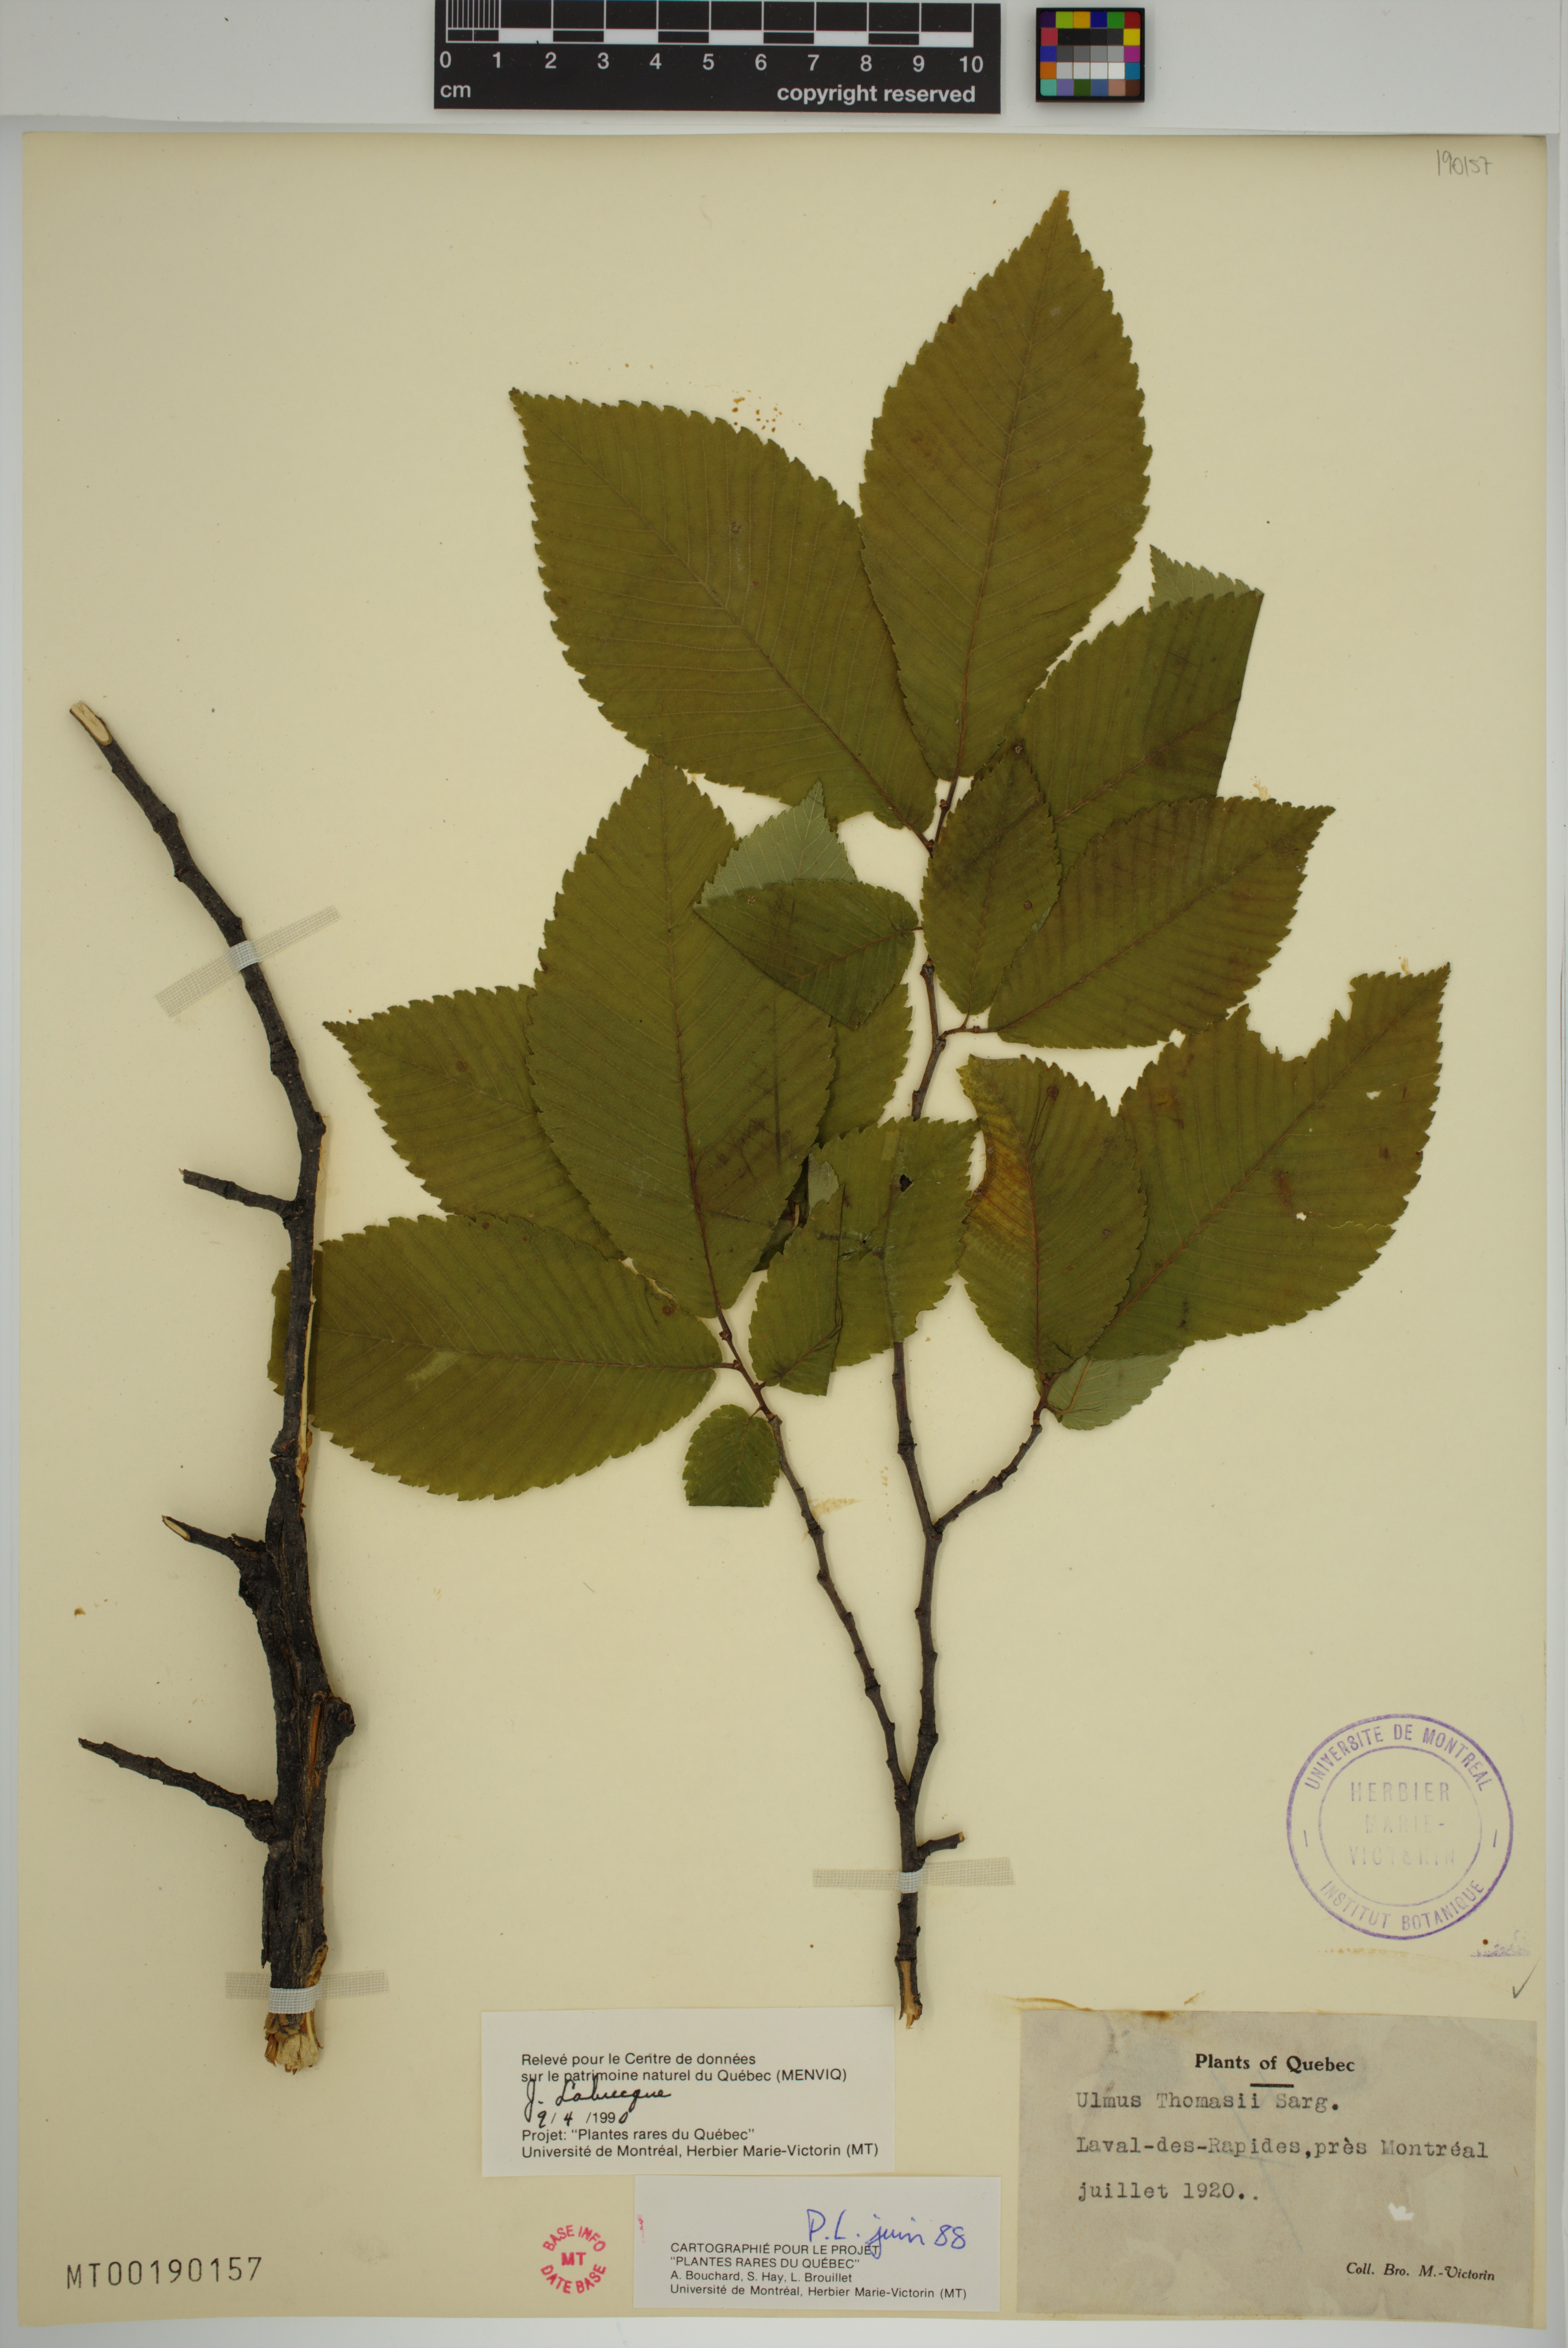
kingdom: Plantae
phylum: Tracheophyta
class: Magnoliopsida
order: Rosales
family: Ulmaceae
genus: Ulmus
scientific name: Ulmus thomasii
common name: Rock elm
